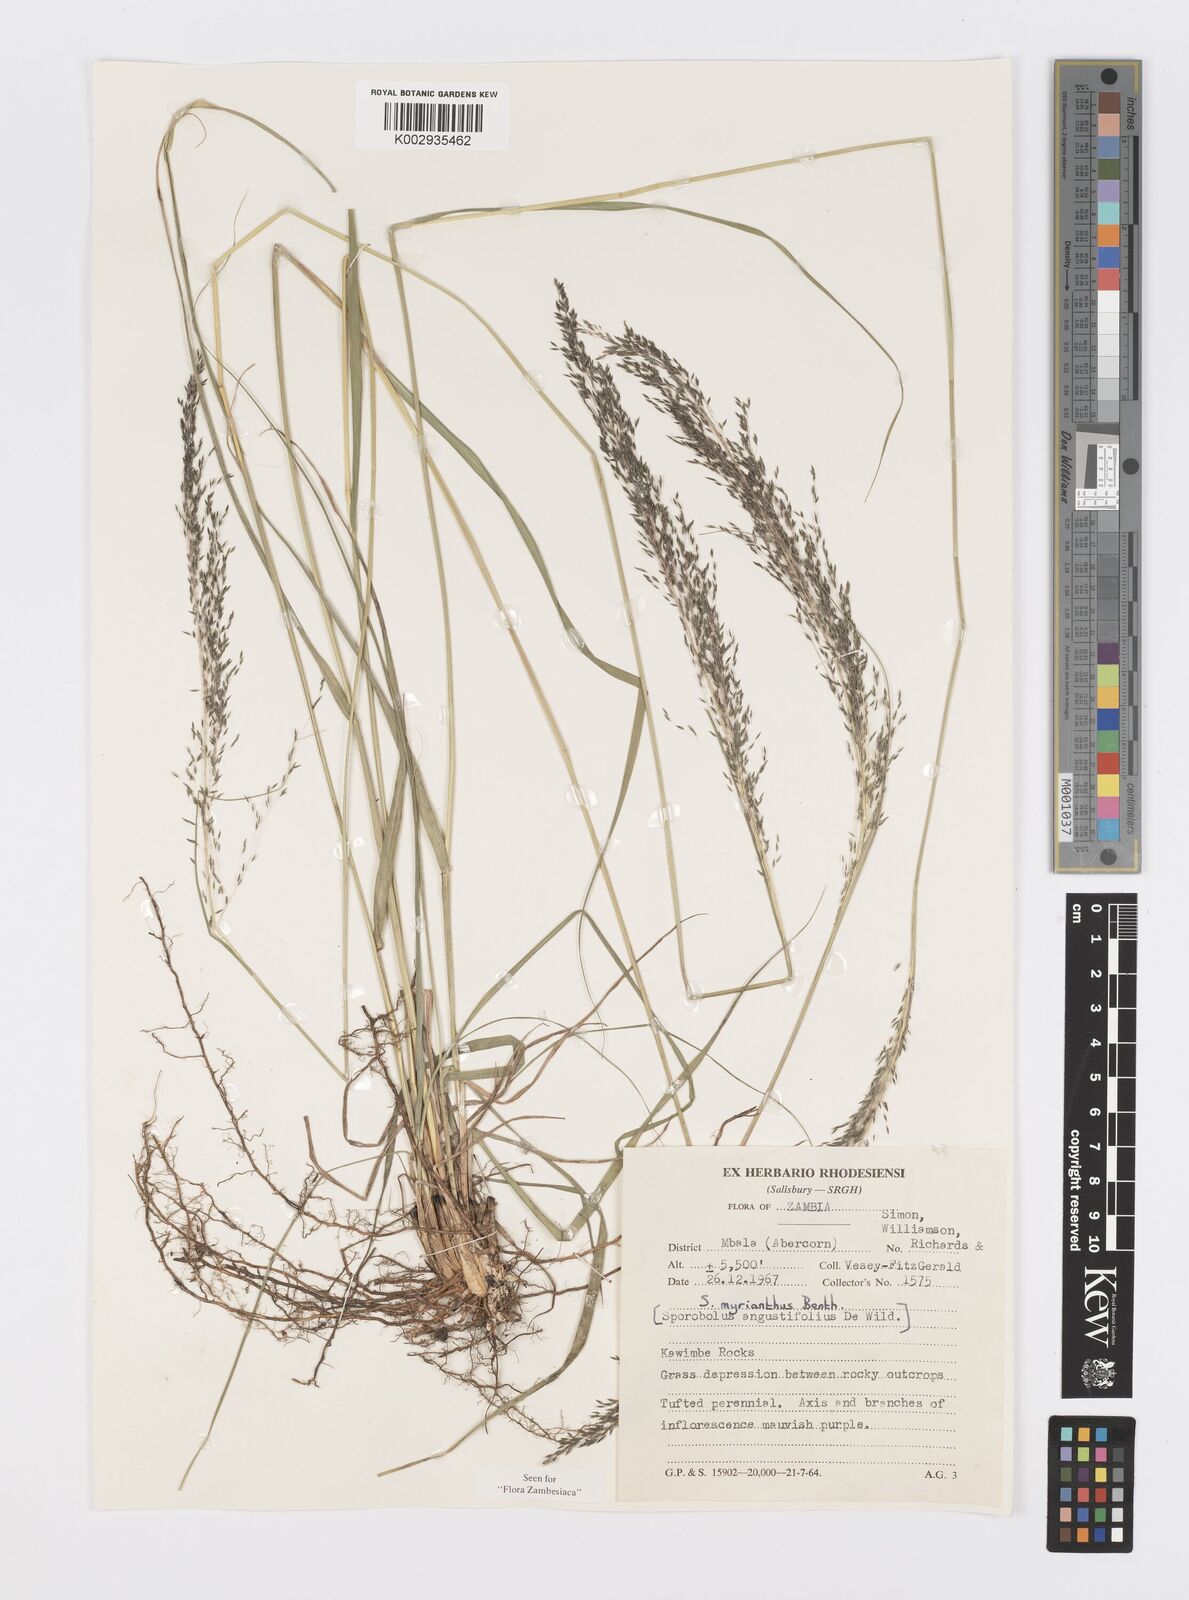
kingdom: Plantae
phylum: Tracheophyta
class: Liliopsida
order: Poales
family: Poaceae
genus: Sporobolus
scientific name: Sporobolus myrianthus
